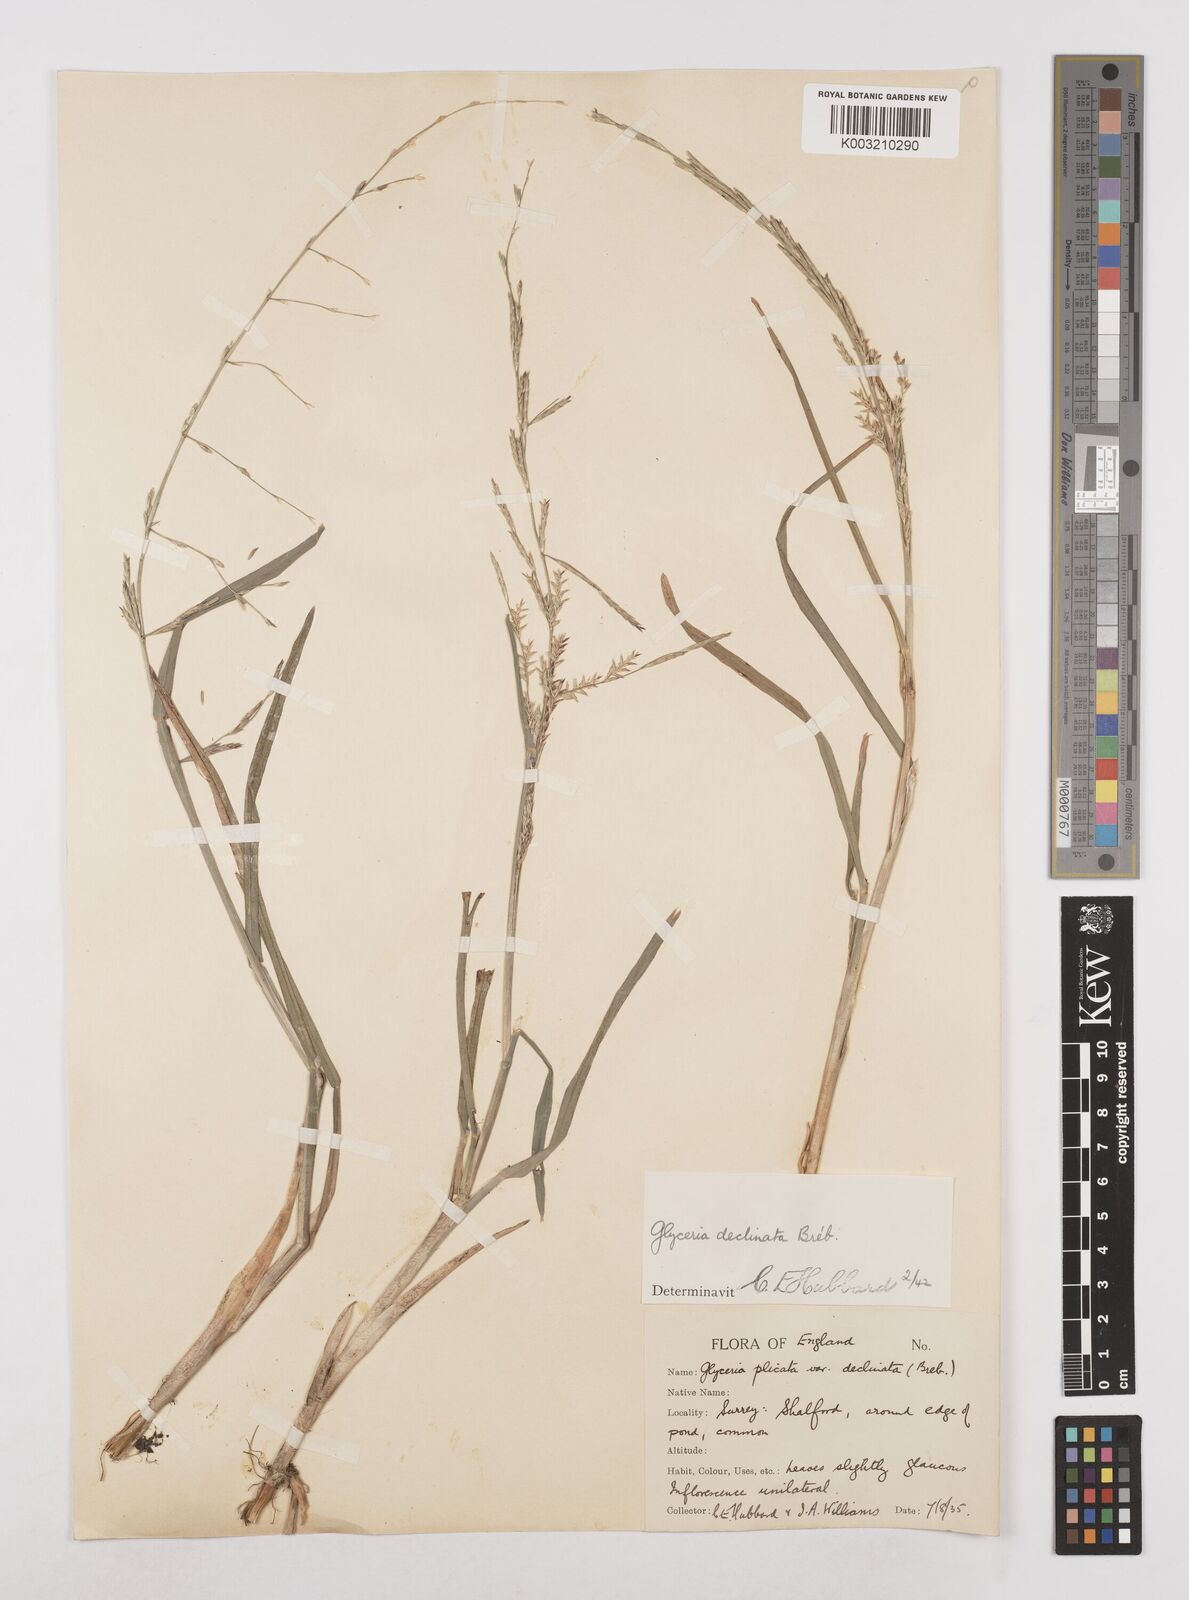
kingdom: Plantae
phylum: Tracheophyta
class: Liliopsida
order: Poales
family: Poaceae
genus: Glyceria
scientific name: Glyceria declinata
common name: Small sweet-grass
